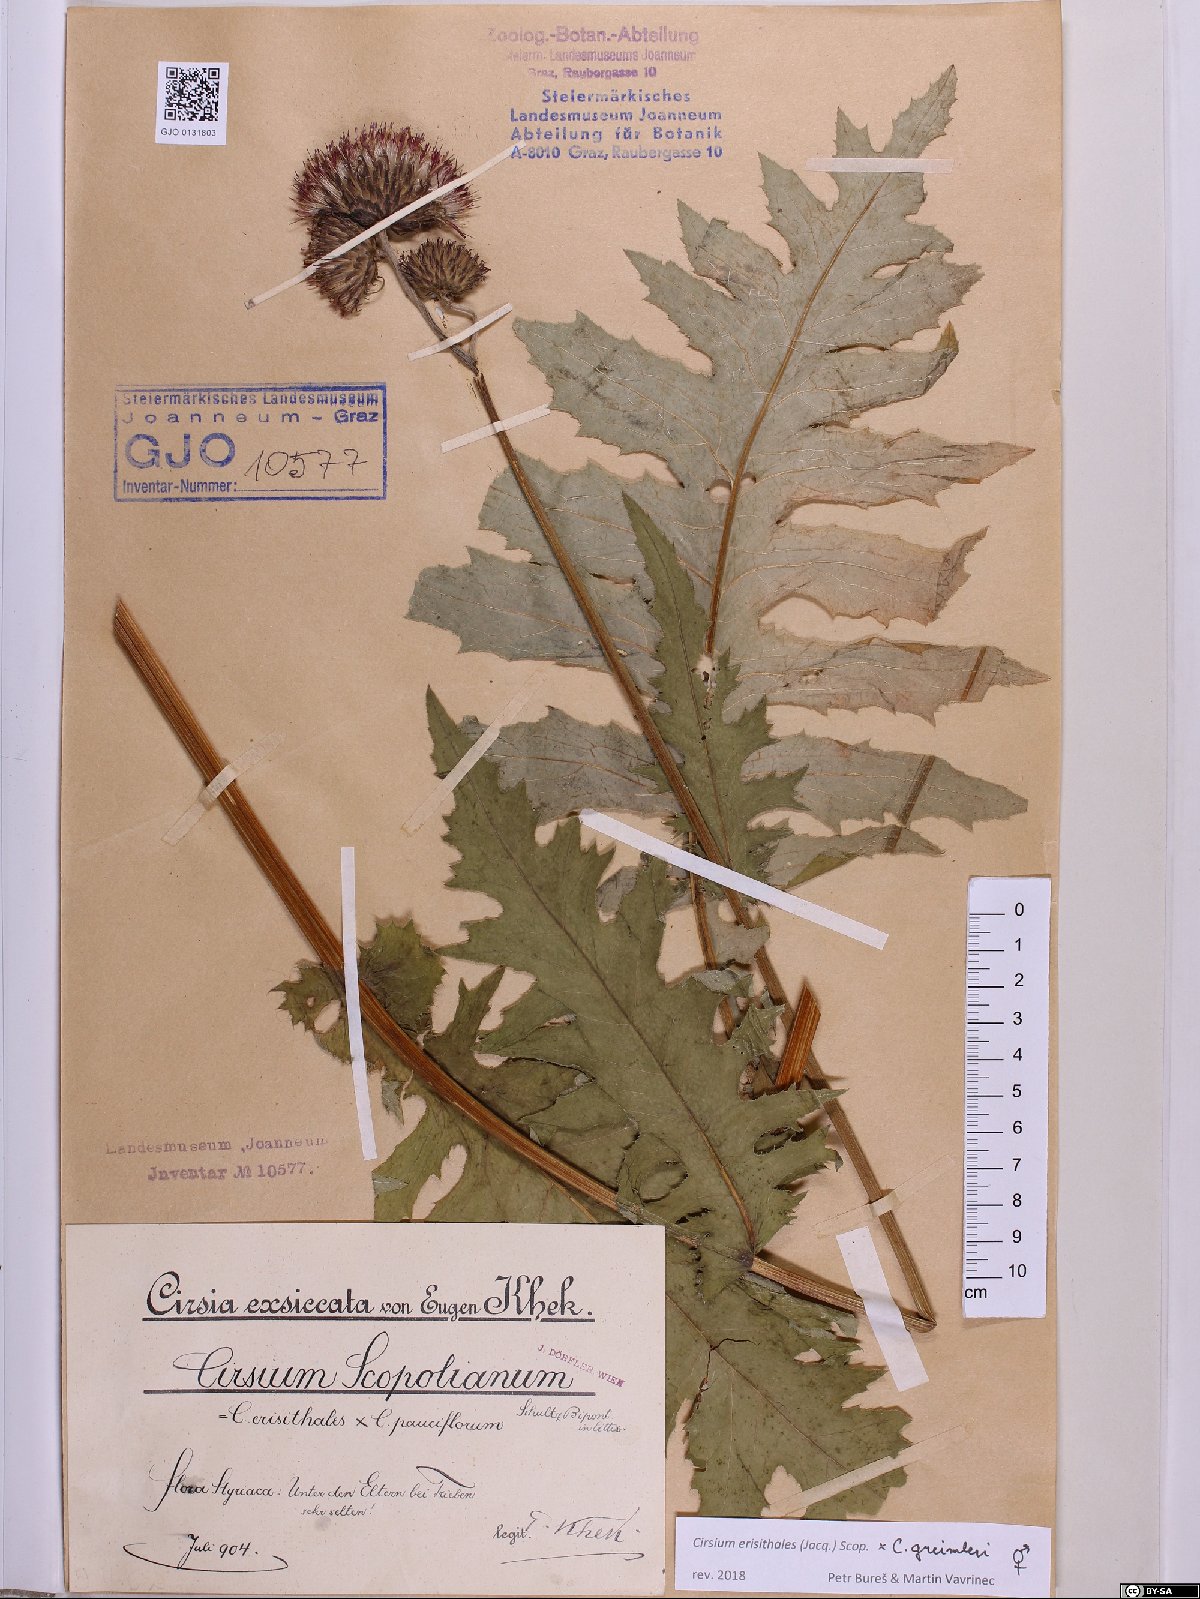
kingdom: Plantae
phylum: Tracheophyta
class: Magnoliopsida
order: Asterales
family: Asteraceae
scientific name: Asteraceae
